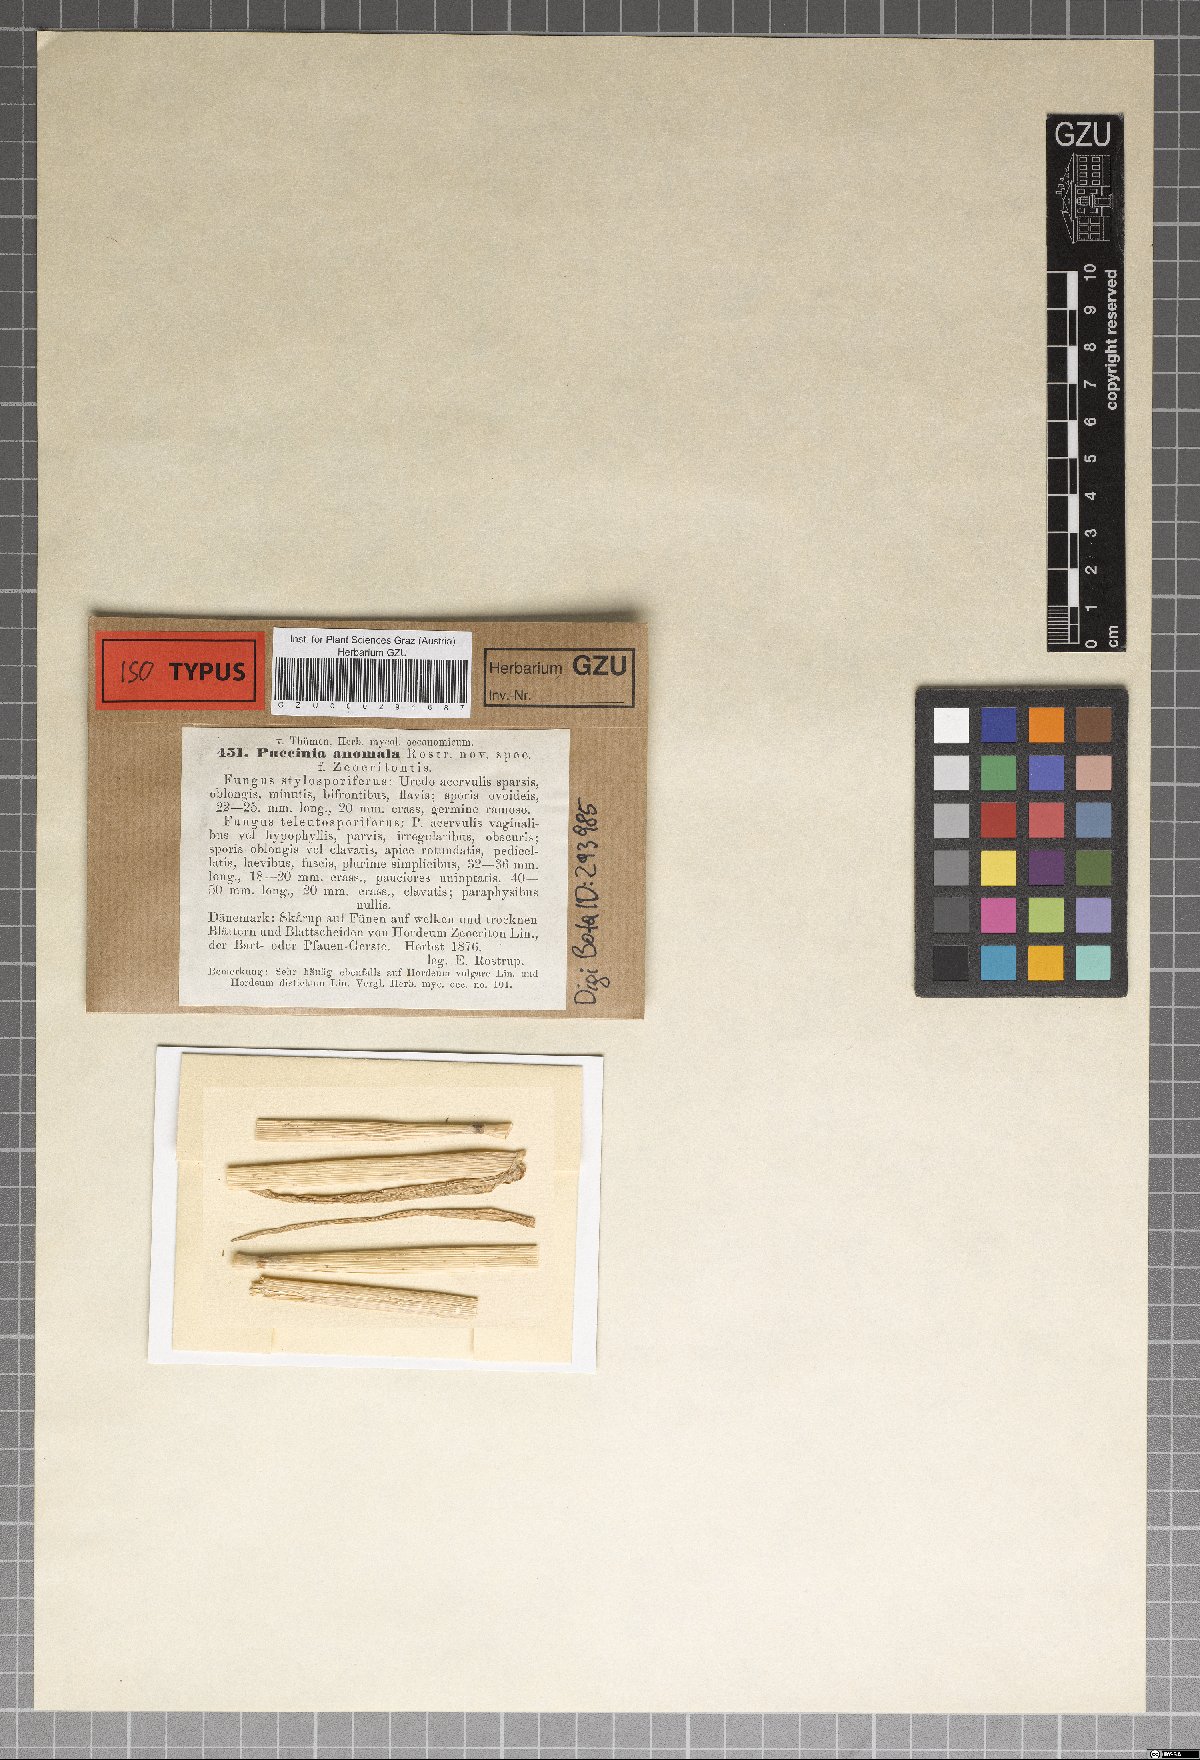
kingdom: Fungi
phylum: Basidiomycota
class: Pucciniomycetes
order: Pucciniales
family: Pucciniaceae
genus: Puccinia
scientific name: Puccinia hordei
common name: Barley leaf rust
